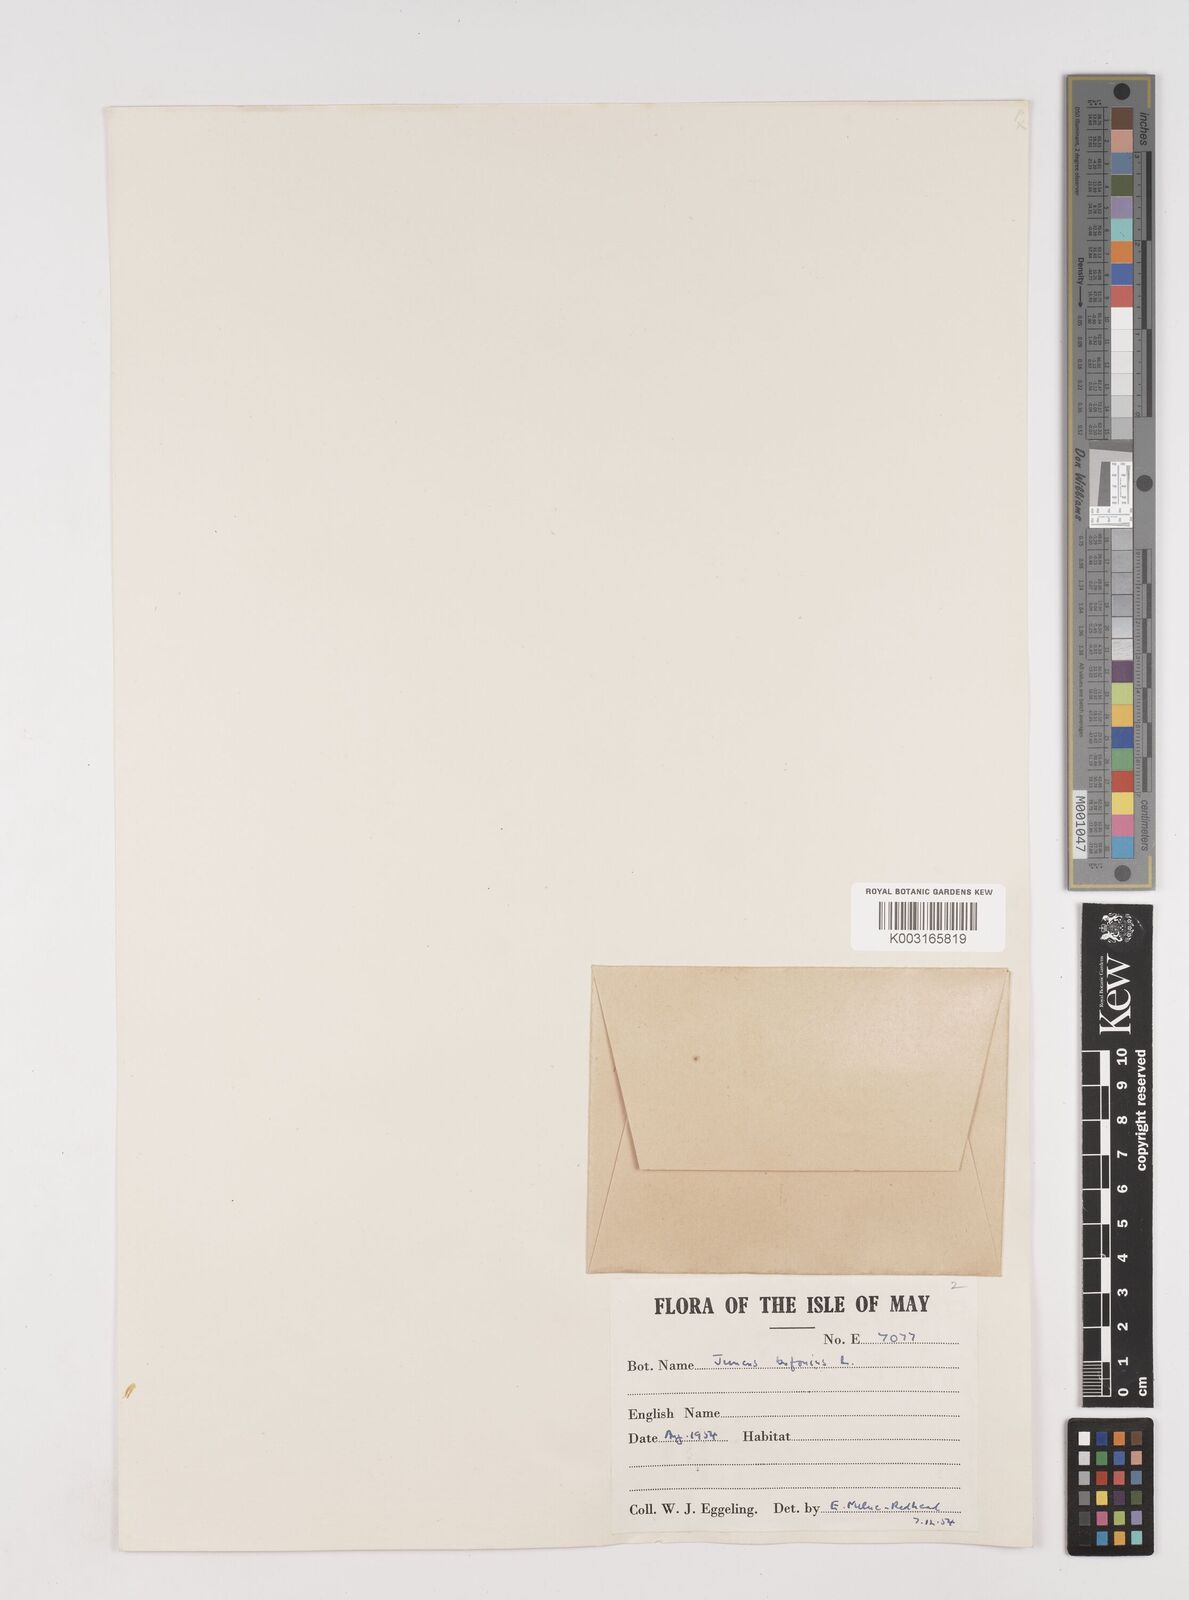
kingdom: Plantae
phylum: Tracheophyta
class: Liliopsida
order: Poales
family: Juncaceae
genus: Juncus
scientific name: Juncus bufonius
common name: Toad rush
